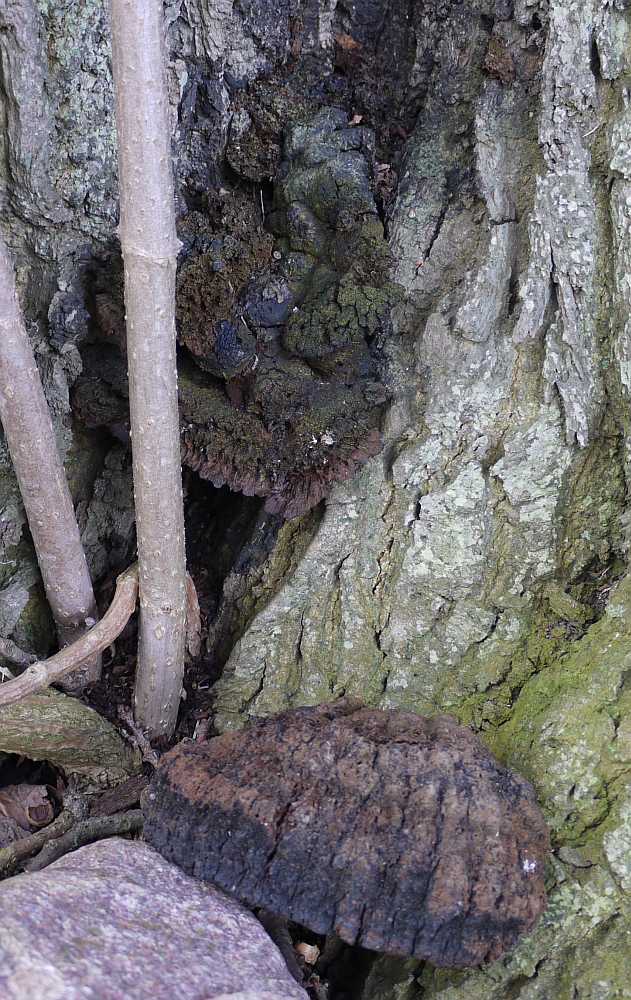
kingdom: Fungi
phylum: Basidiomycota
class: Agaricomycetes
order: Hymenochaetales
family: Hymenochaetaceae
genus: Pseudoinonotus
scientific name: Pseudoinonotus dryadeus
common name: ege-spejlporesvamp
